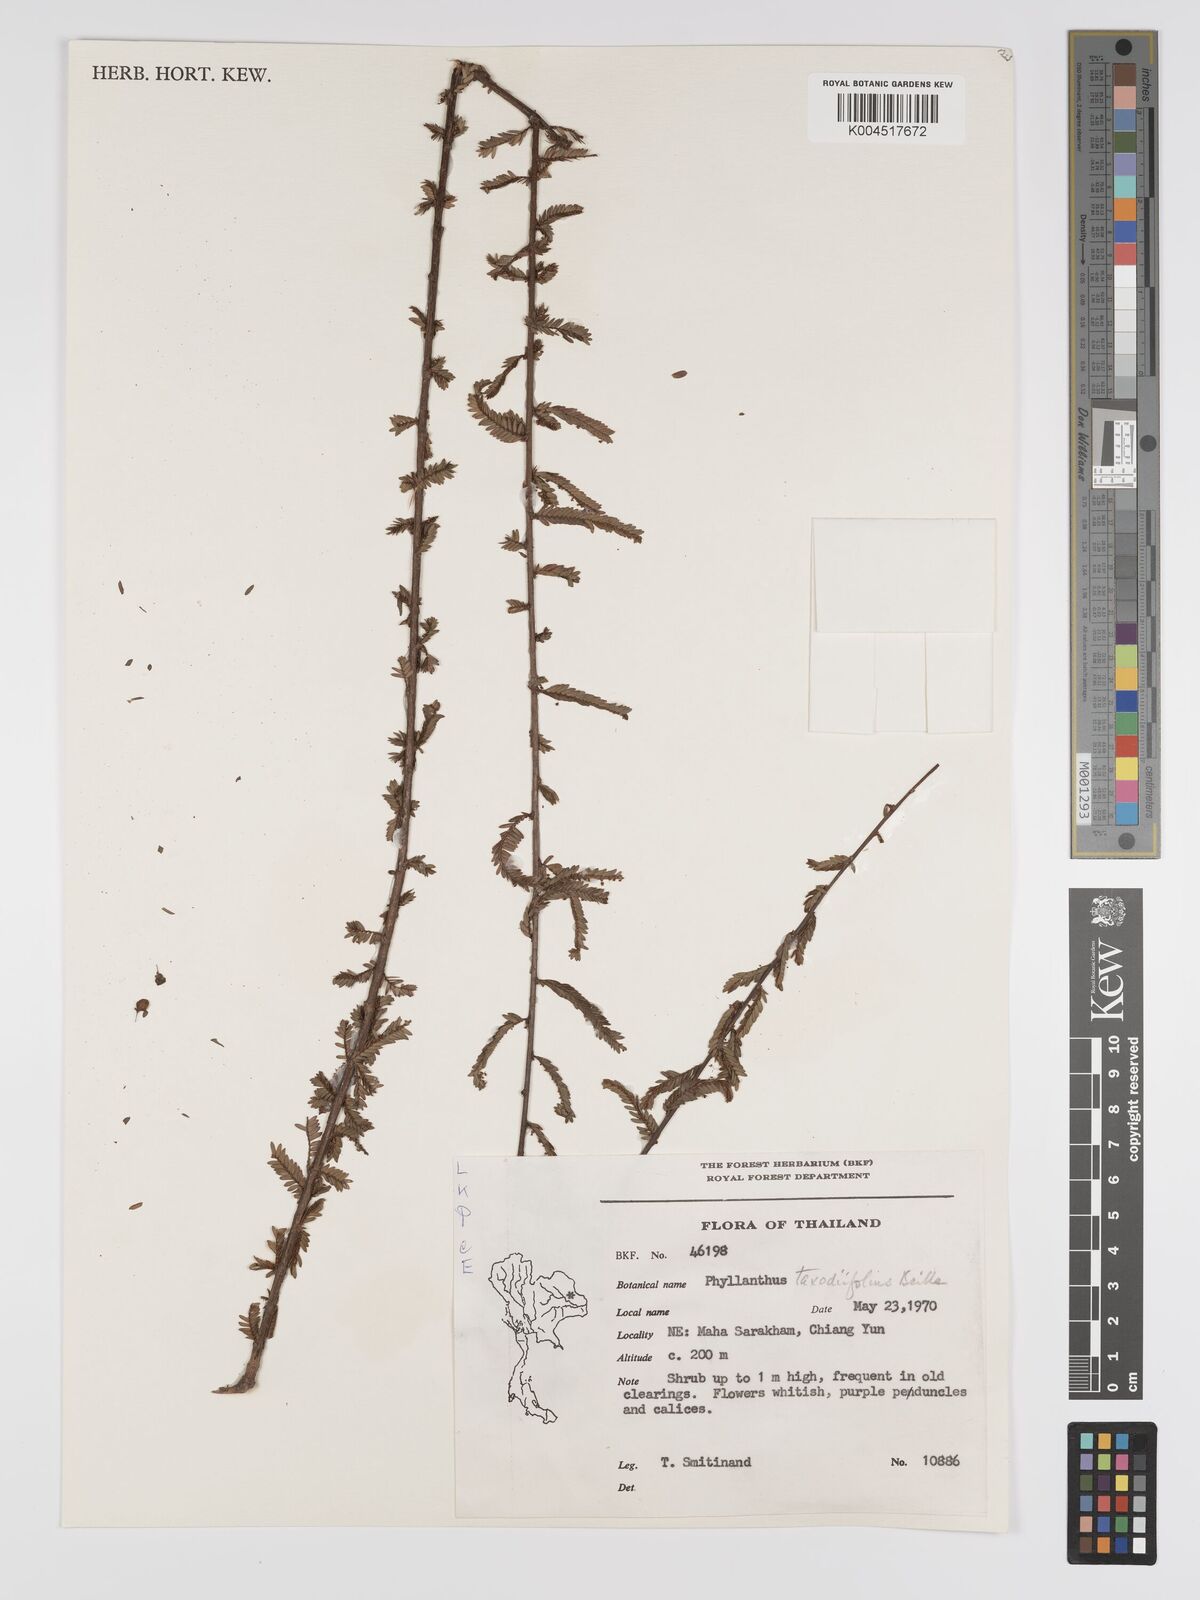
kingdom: Plantae
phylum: Tracheophyta
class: Magnoliopsida
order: Malpighiales
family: Phyllanthaceae
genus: Phyllanthus
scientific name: Phyllanthus taxodiifolius
